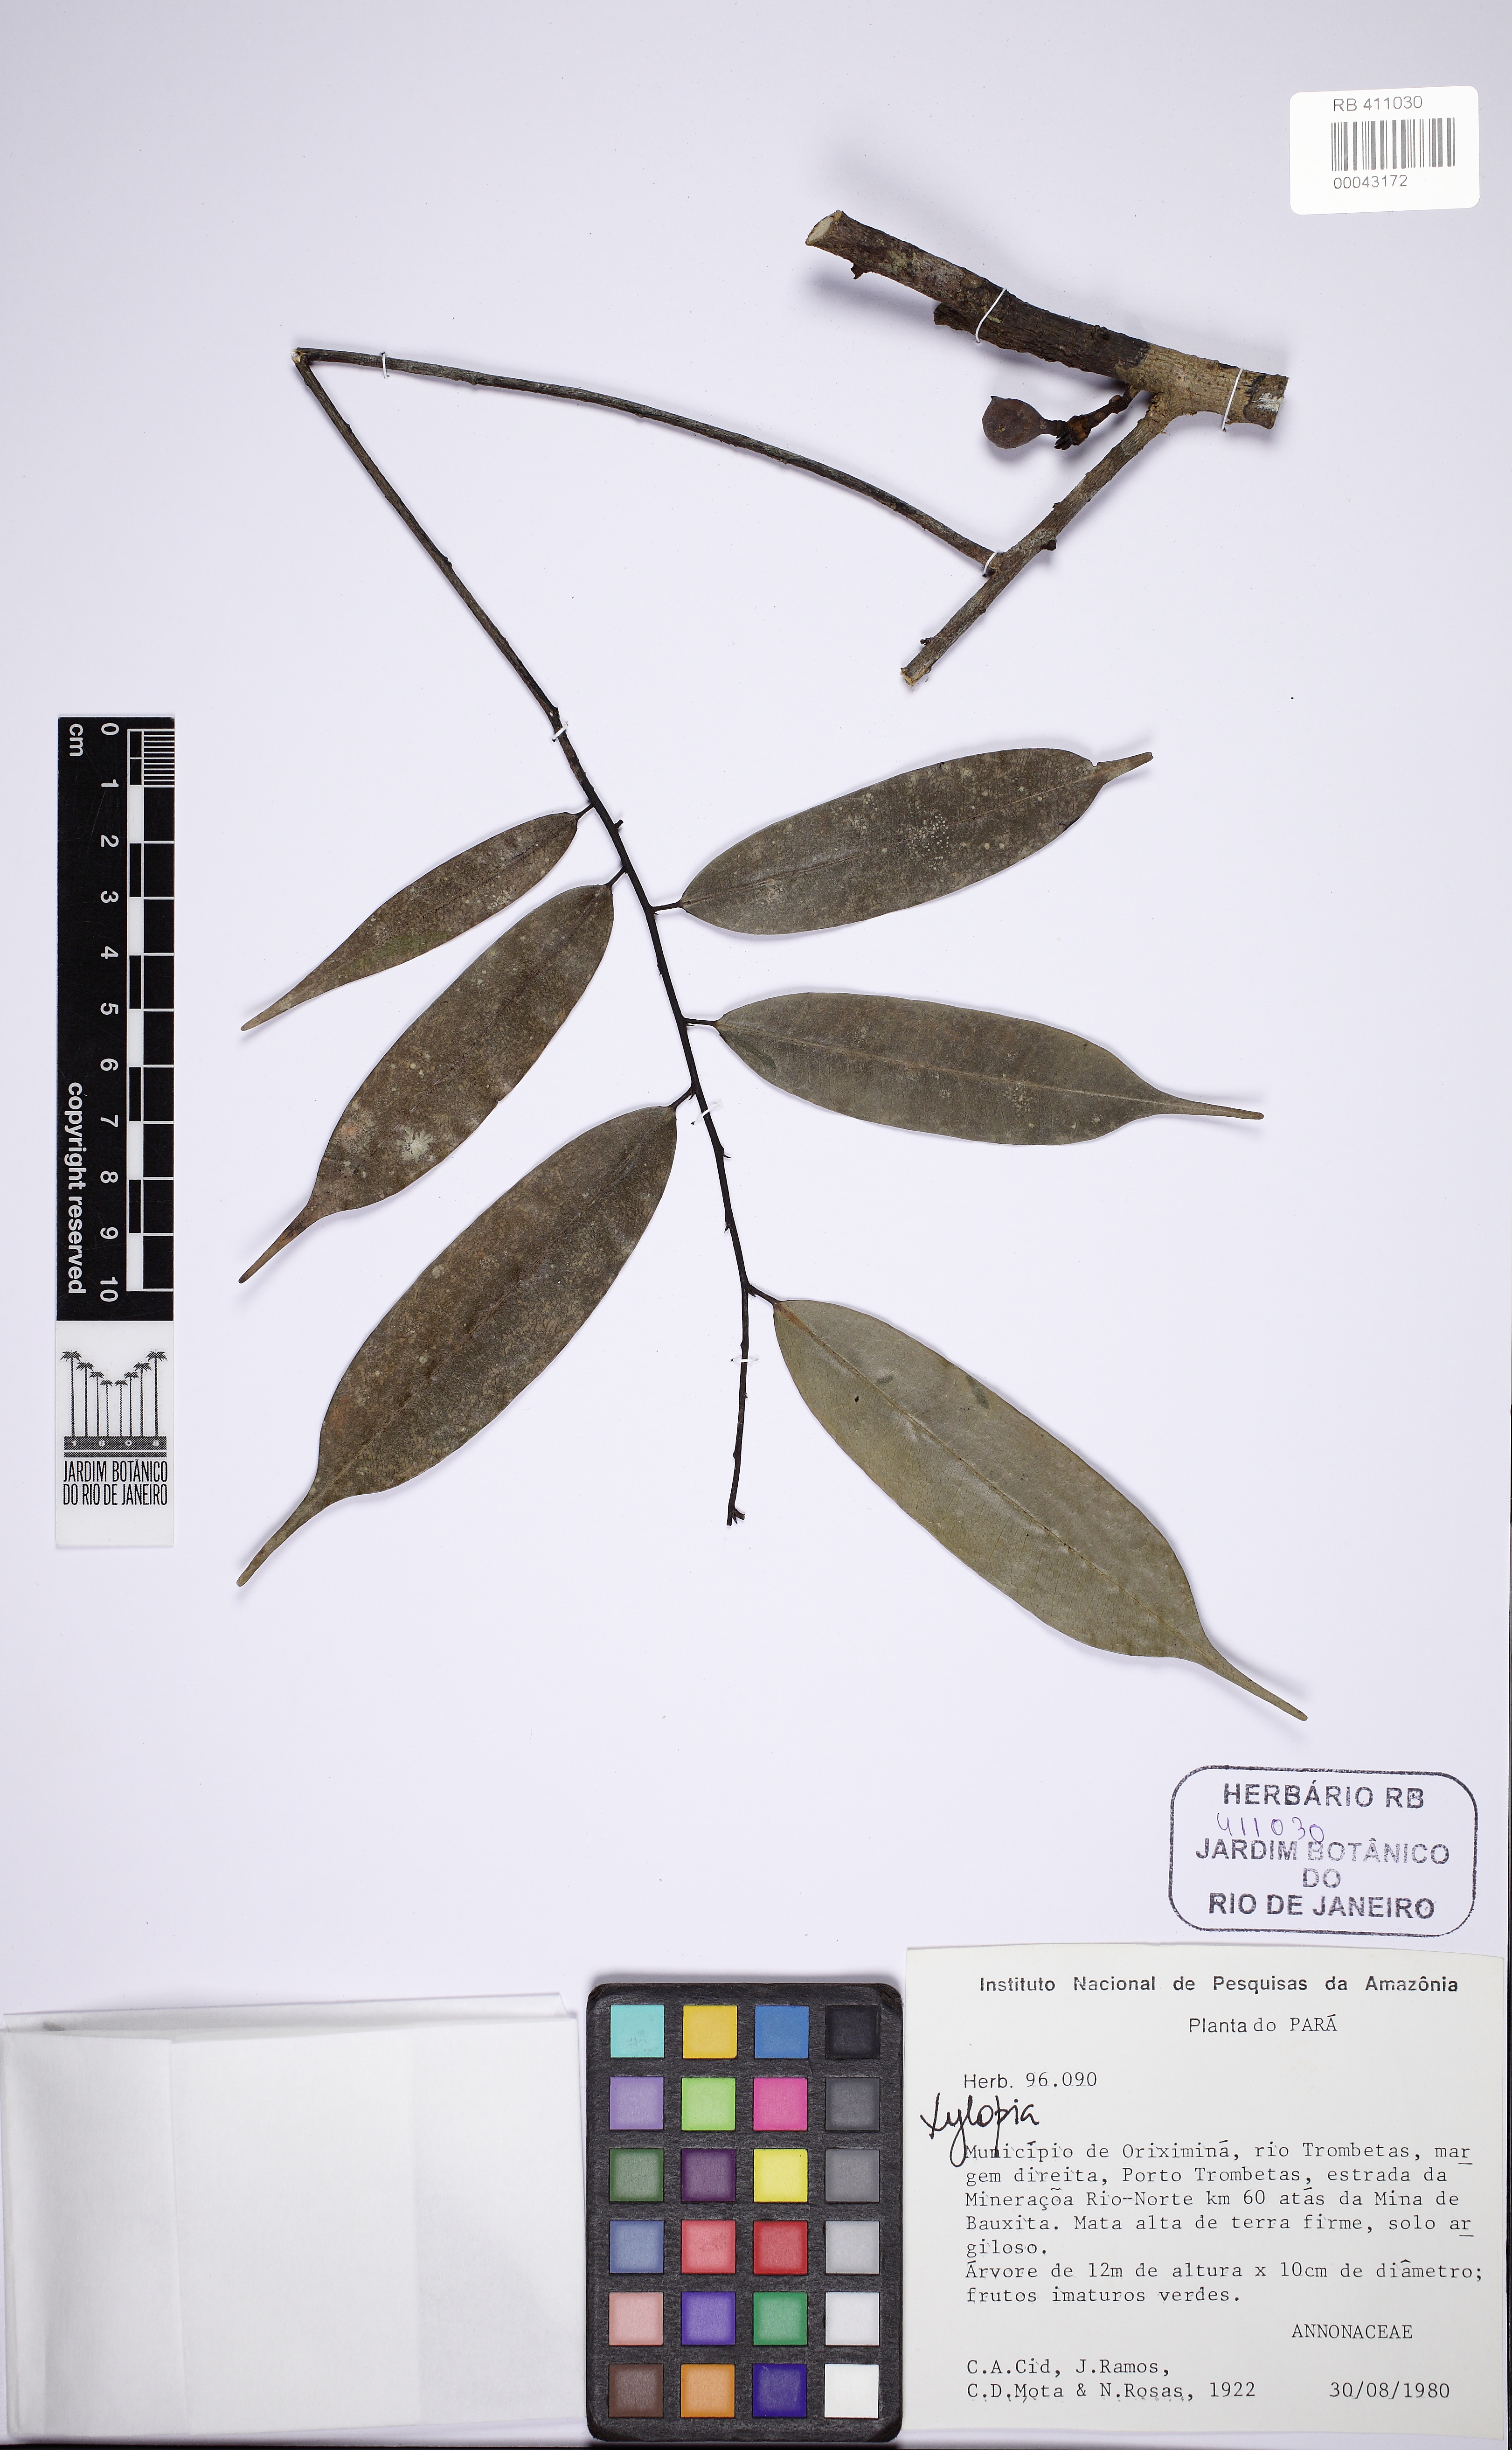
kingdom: Plantae
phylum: Tracheophyta
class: Magnoliopsida
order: Magnoliales
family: Annonaceae
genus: Xylopia
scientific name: Xylopia benthamii
